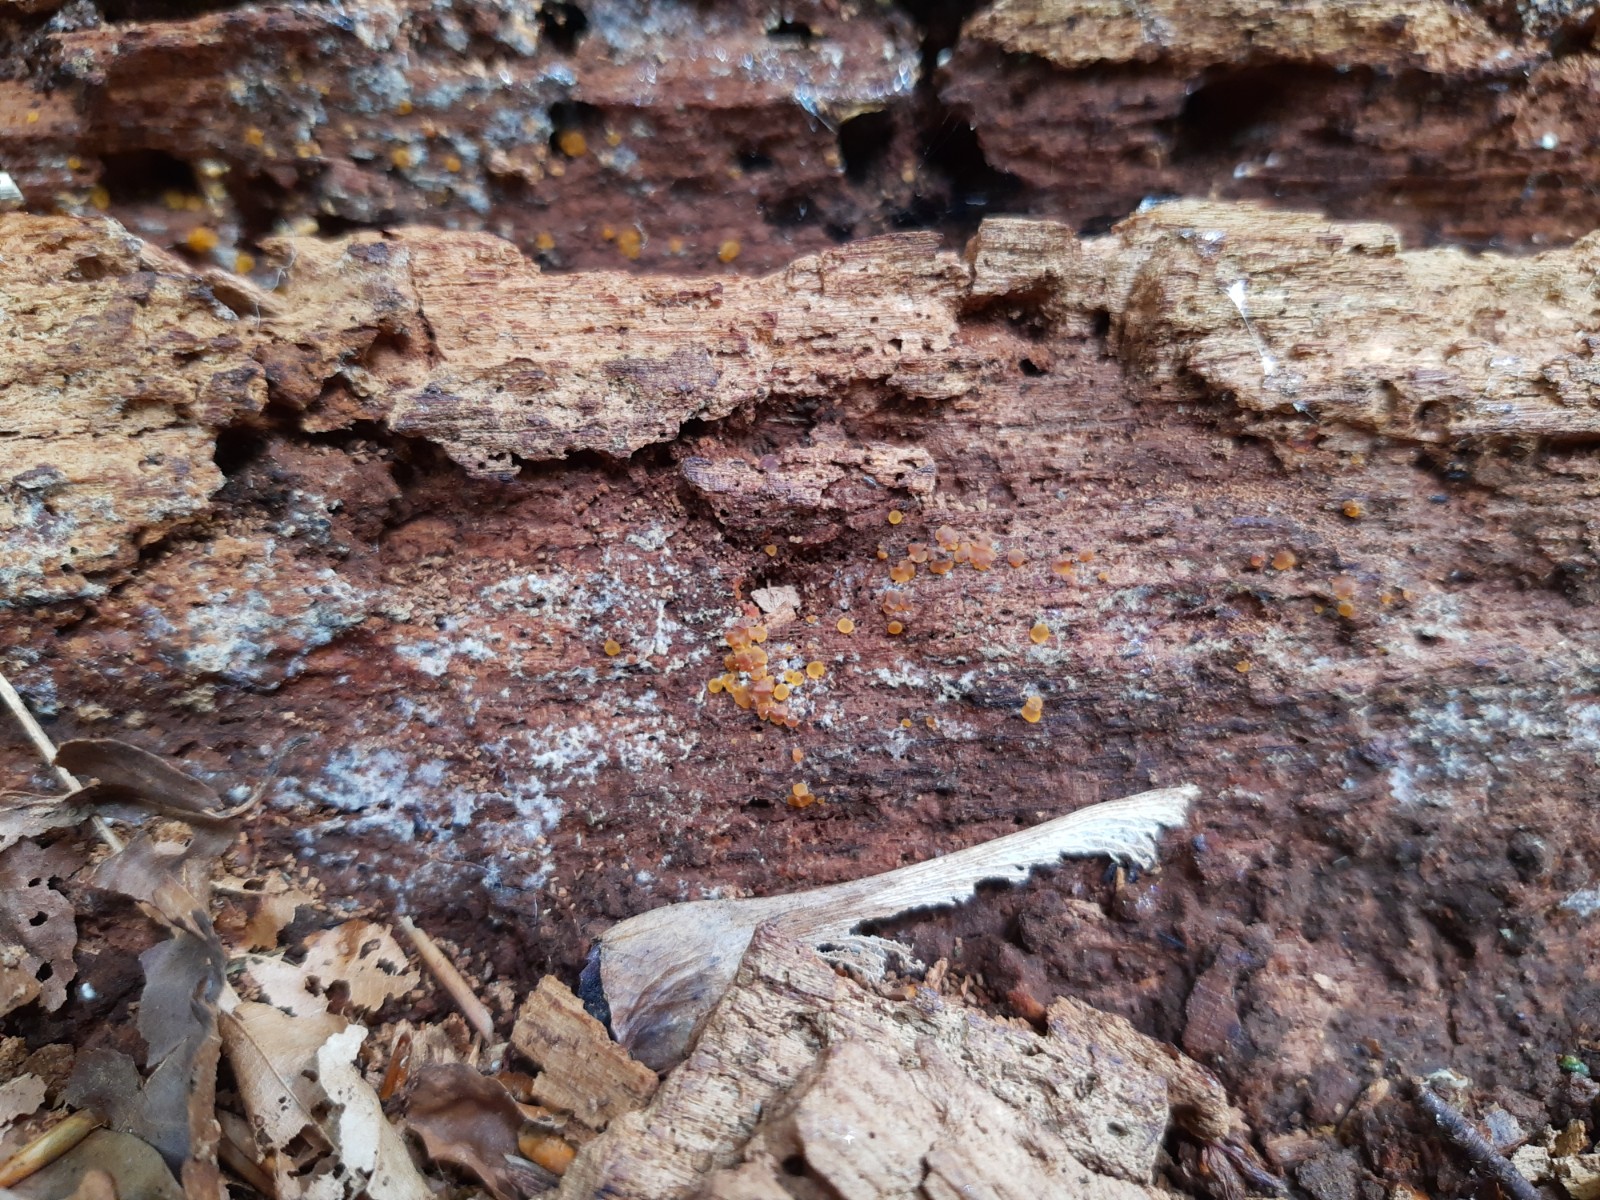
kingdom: Fungi
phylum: Ascomycota
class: Orbiliomycetes
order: Orbiliales
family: Orbiliaceae
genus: Orbilia
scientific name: Orbilia xanthostigma
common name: krumsporet voksskive
